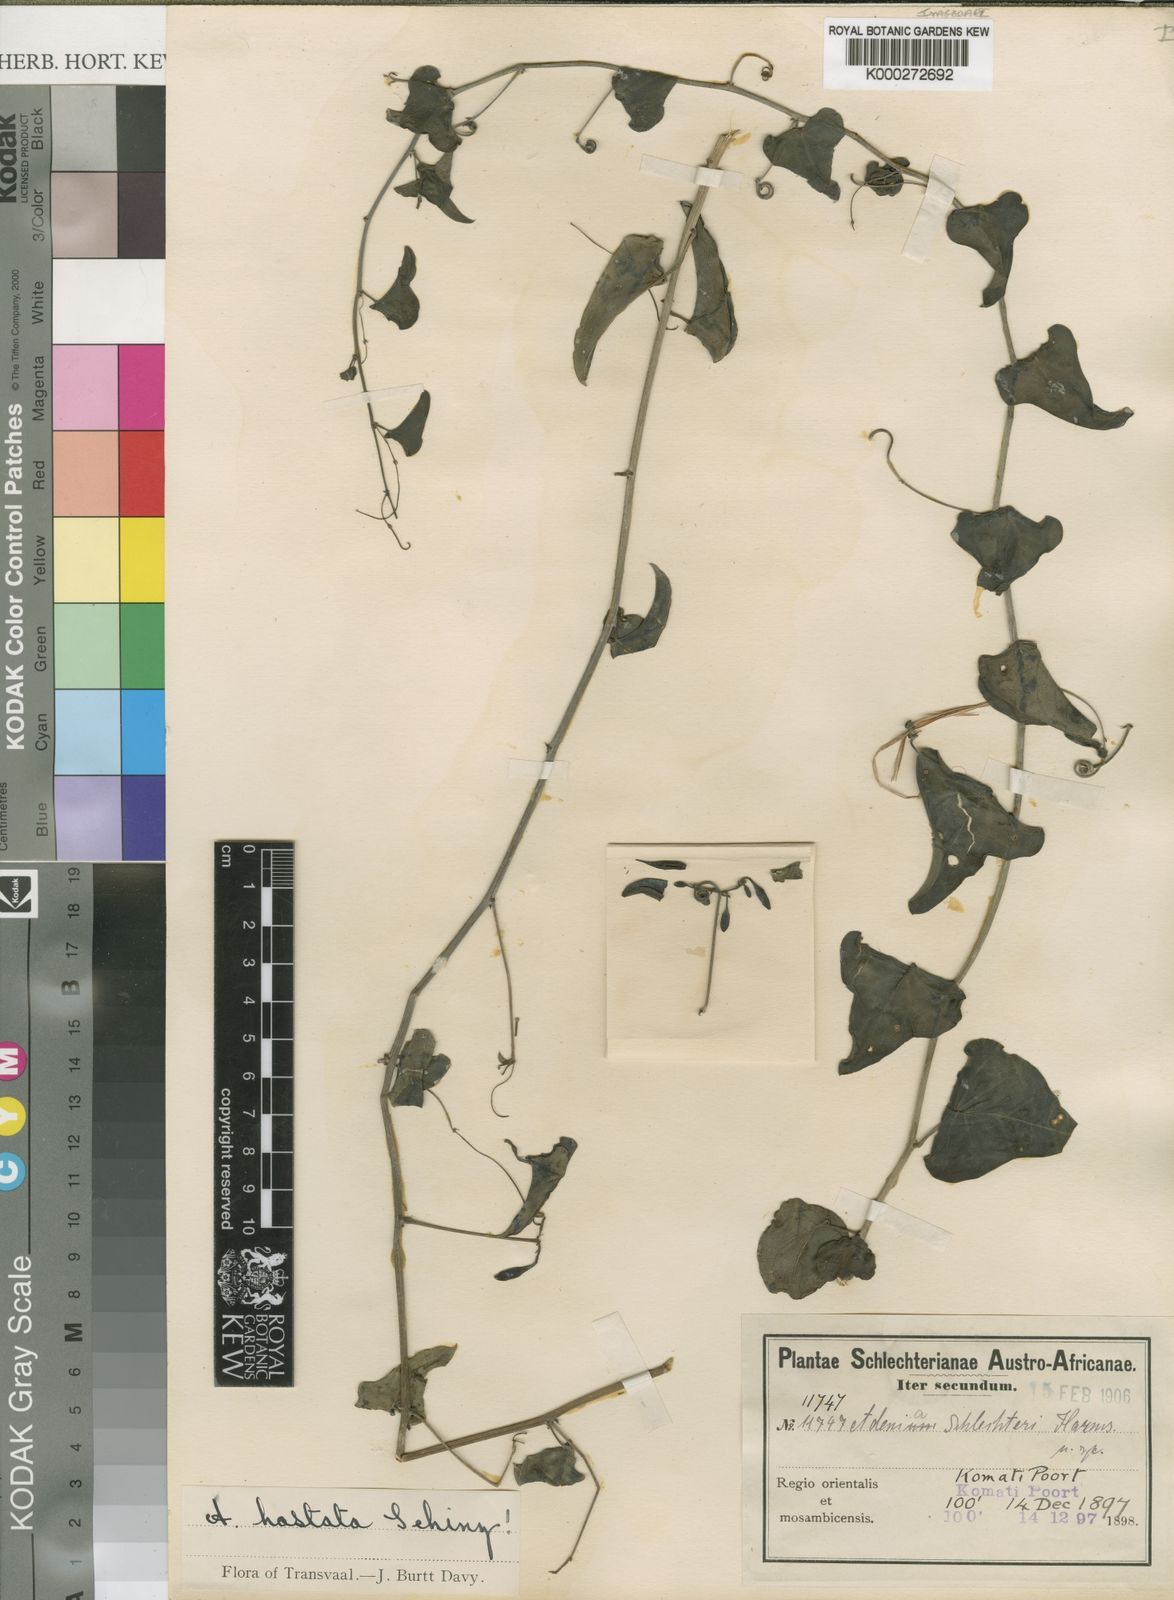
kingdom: Plantae
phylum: Tracheophyta
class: Magnoliopsida
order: Malpighiales
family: Passifloraceae
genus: Adenia
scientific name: Adenia hastata
